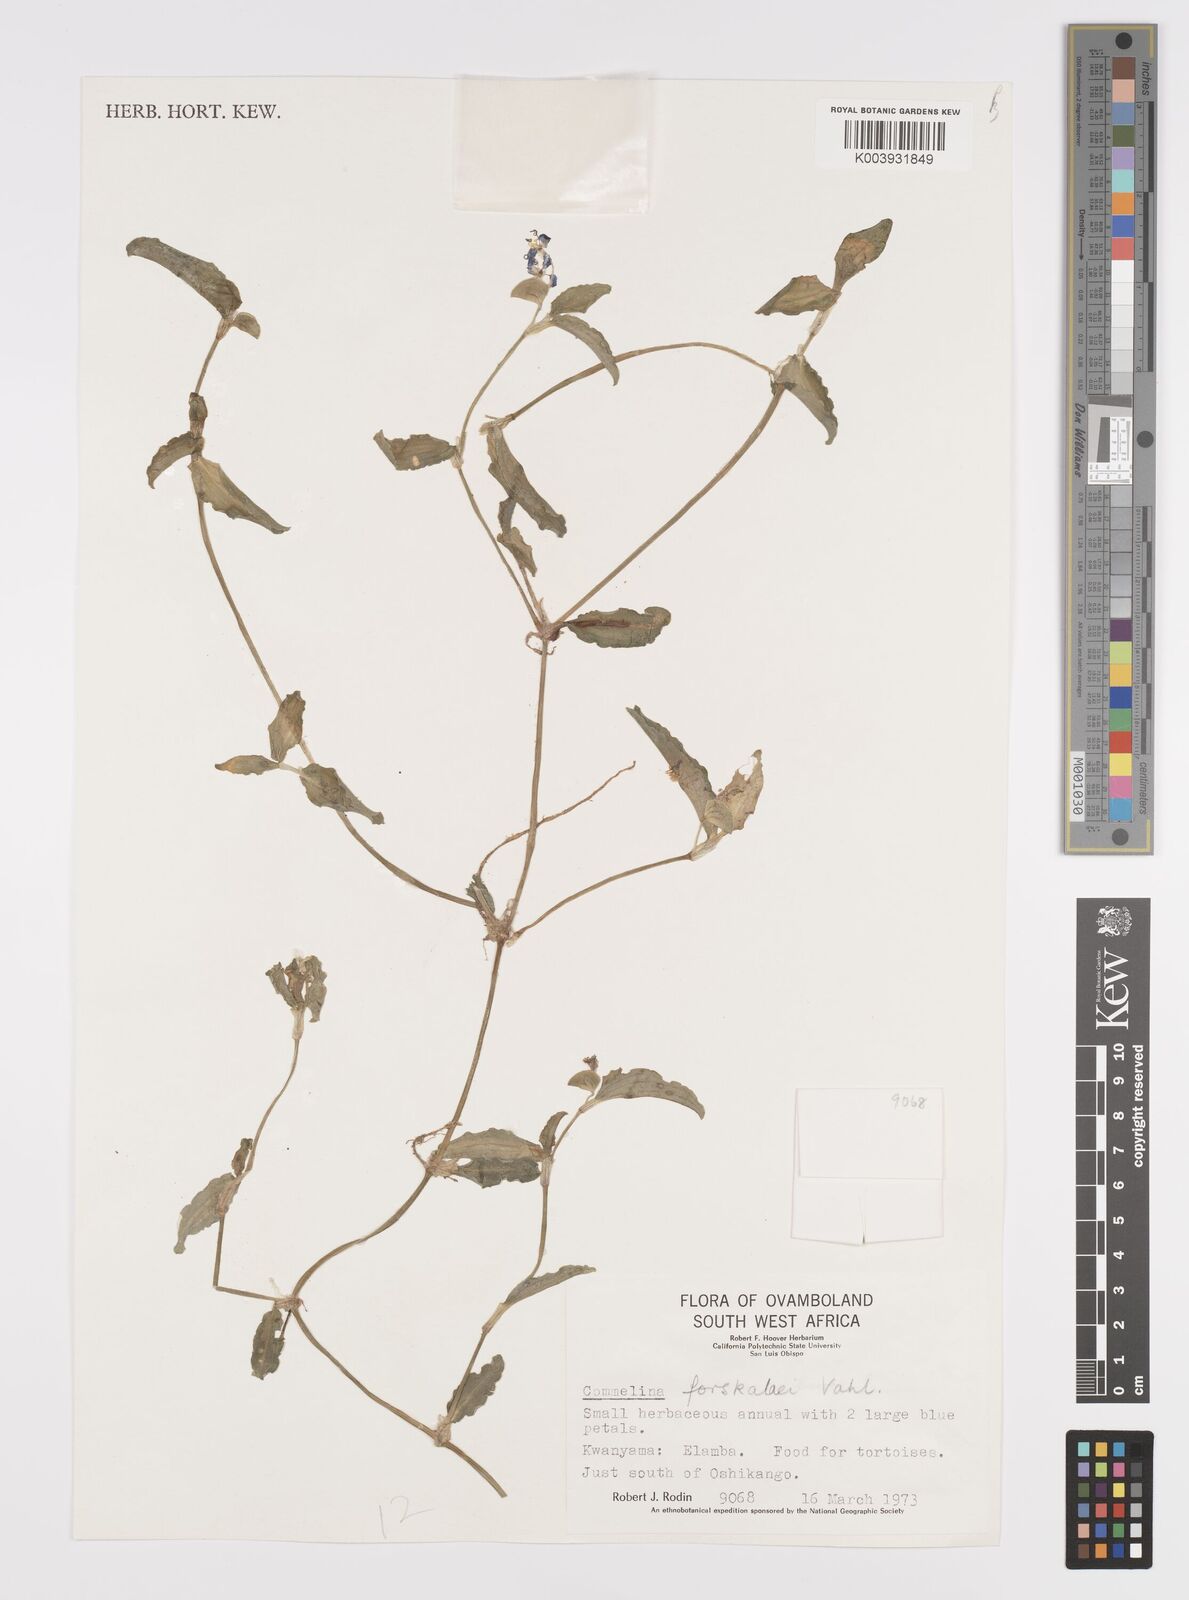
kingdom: Plantae
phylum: Tracheophyta
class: Liliopsida
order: Commelinales
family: Commelinaceae
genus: Commelina
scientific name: Commelina forskaolii
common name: Rat's ear
